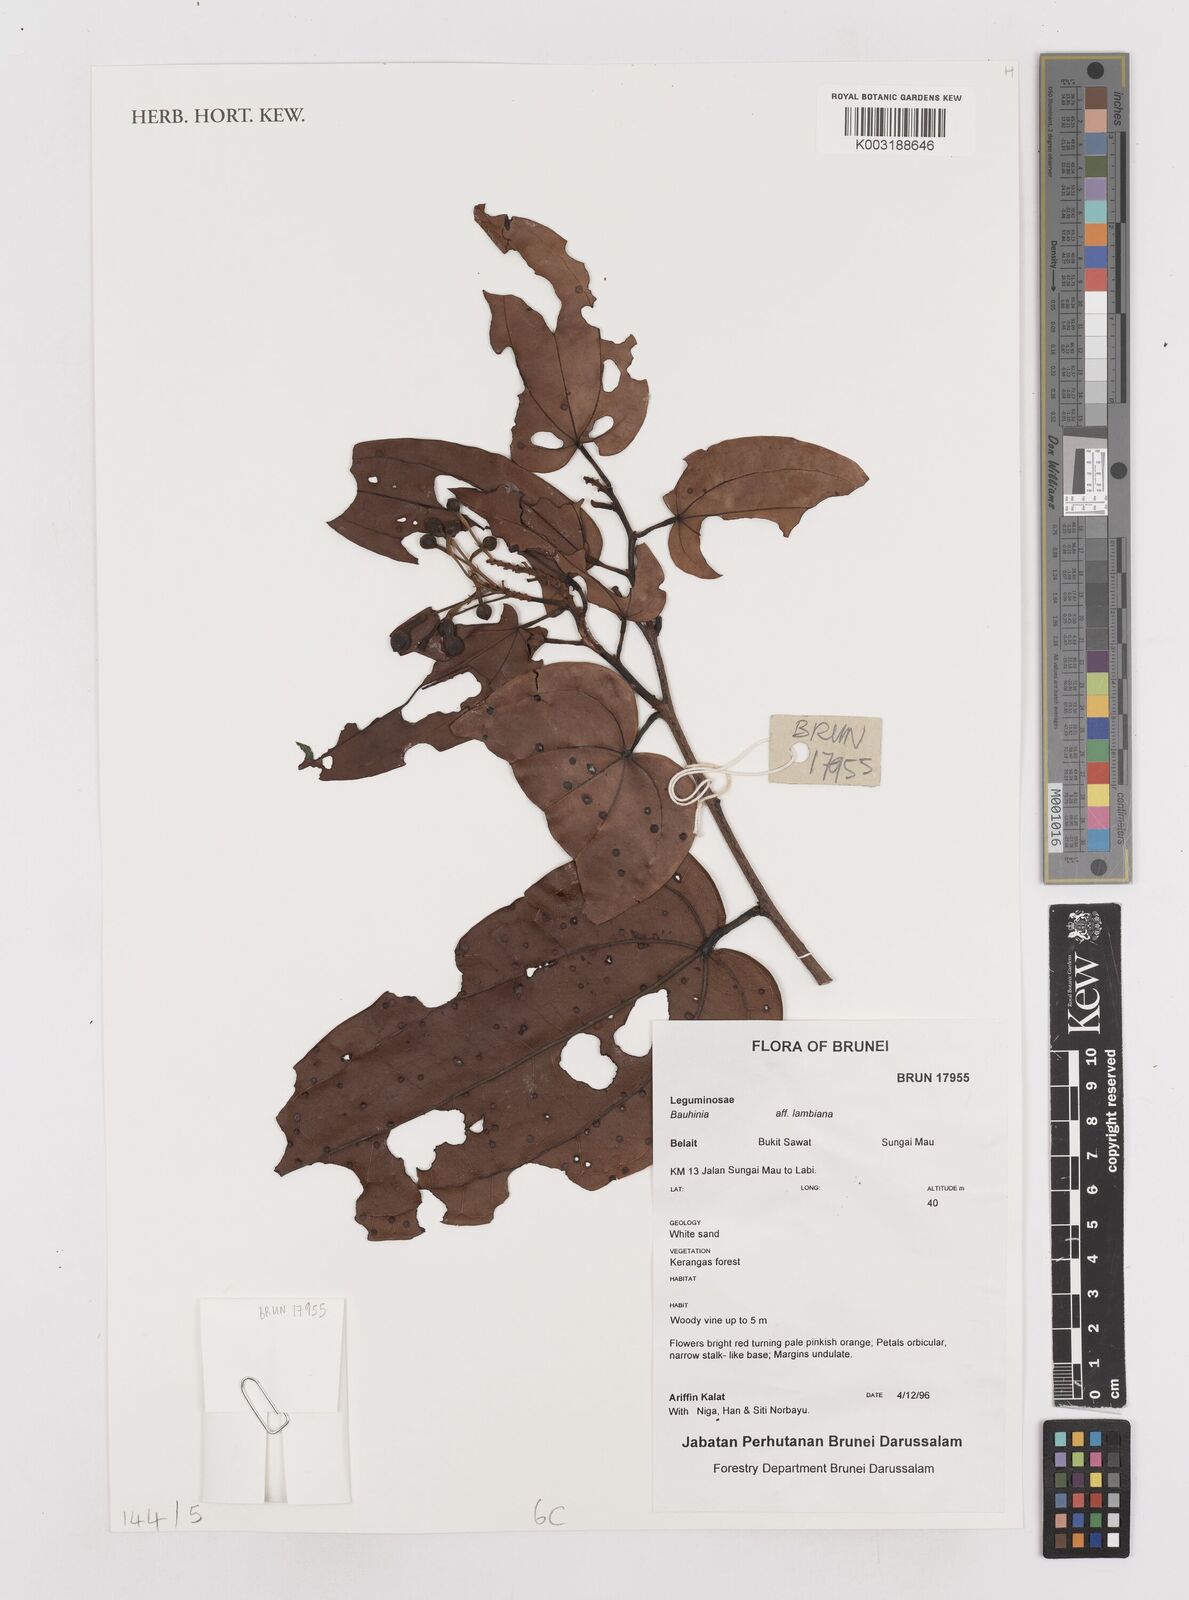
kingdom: Plantae
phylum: Tracheophyta
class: Magnoliopsida
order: Fabales
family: Fabaceae
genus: Bauhinia
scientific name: Bauhinia
